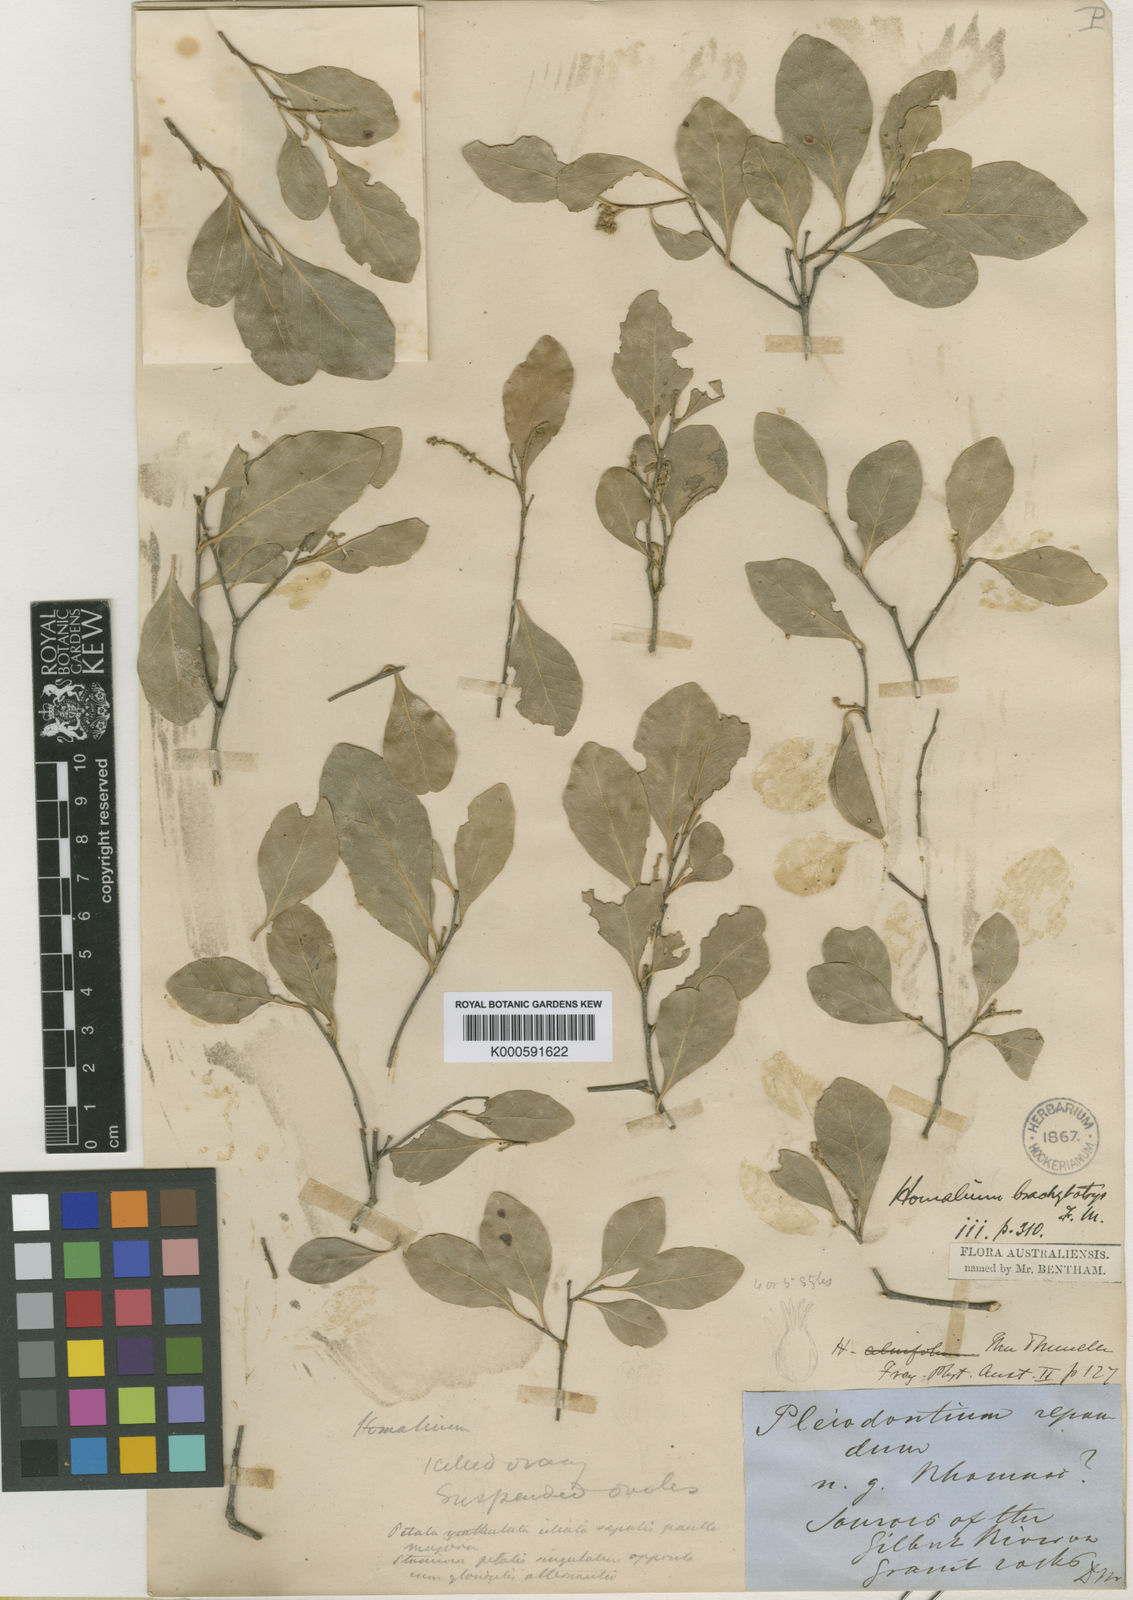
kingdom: Plantae
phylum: Tracheophyta
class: Magnoliopsida
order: Malpighiales
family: Salicaceae
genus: Homalium
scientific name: Homalium
